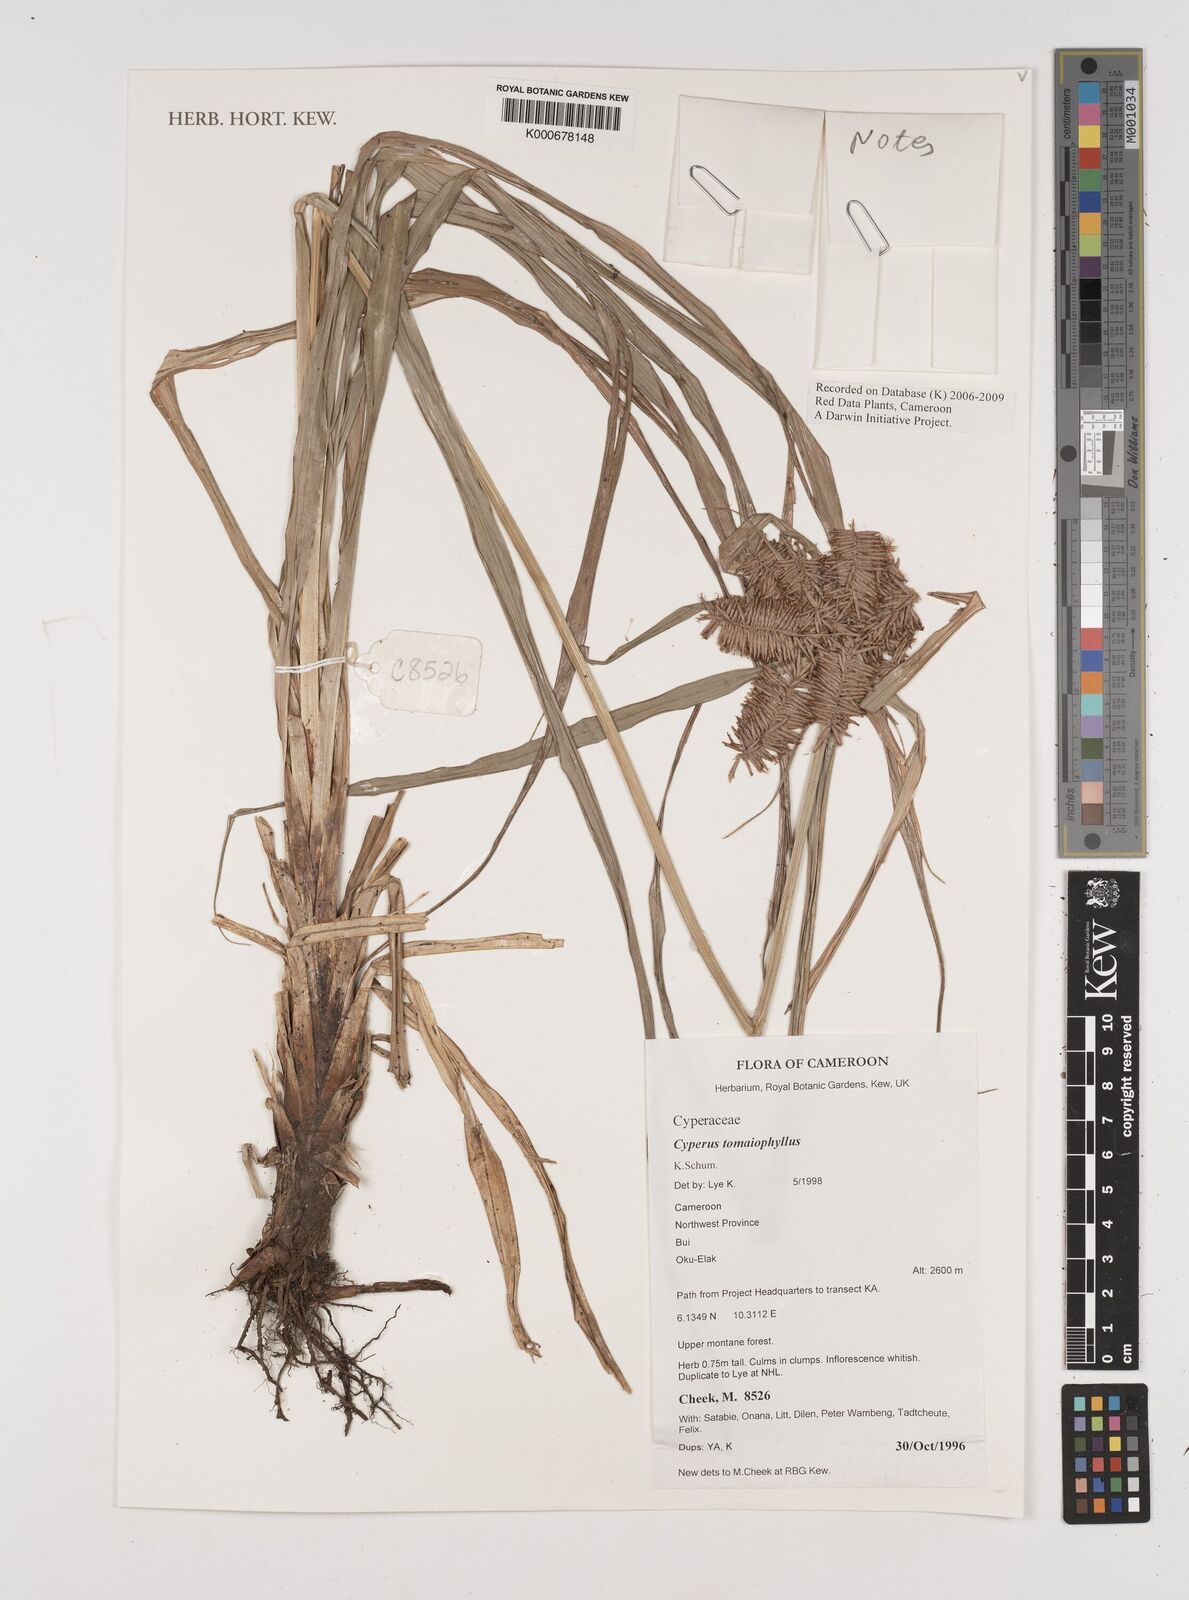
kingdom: Plantae
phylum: Tracheophyta
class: Liliopsida
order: Poales
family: Cyperaceae
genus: Cyperus
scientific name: Cyperus tomaiophyllus
